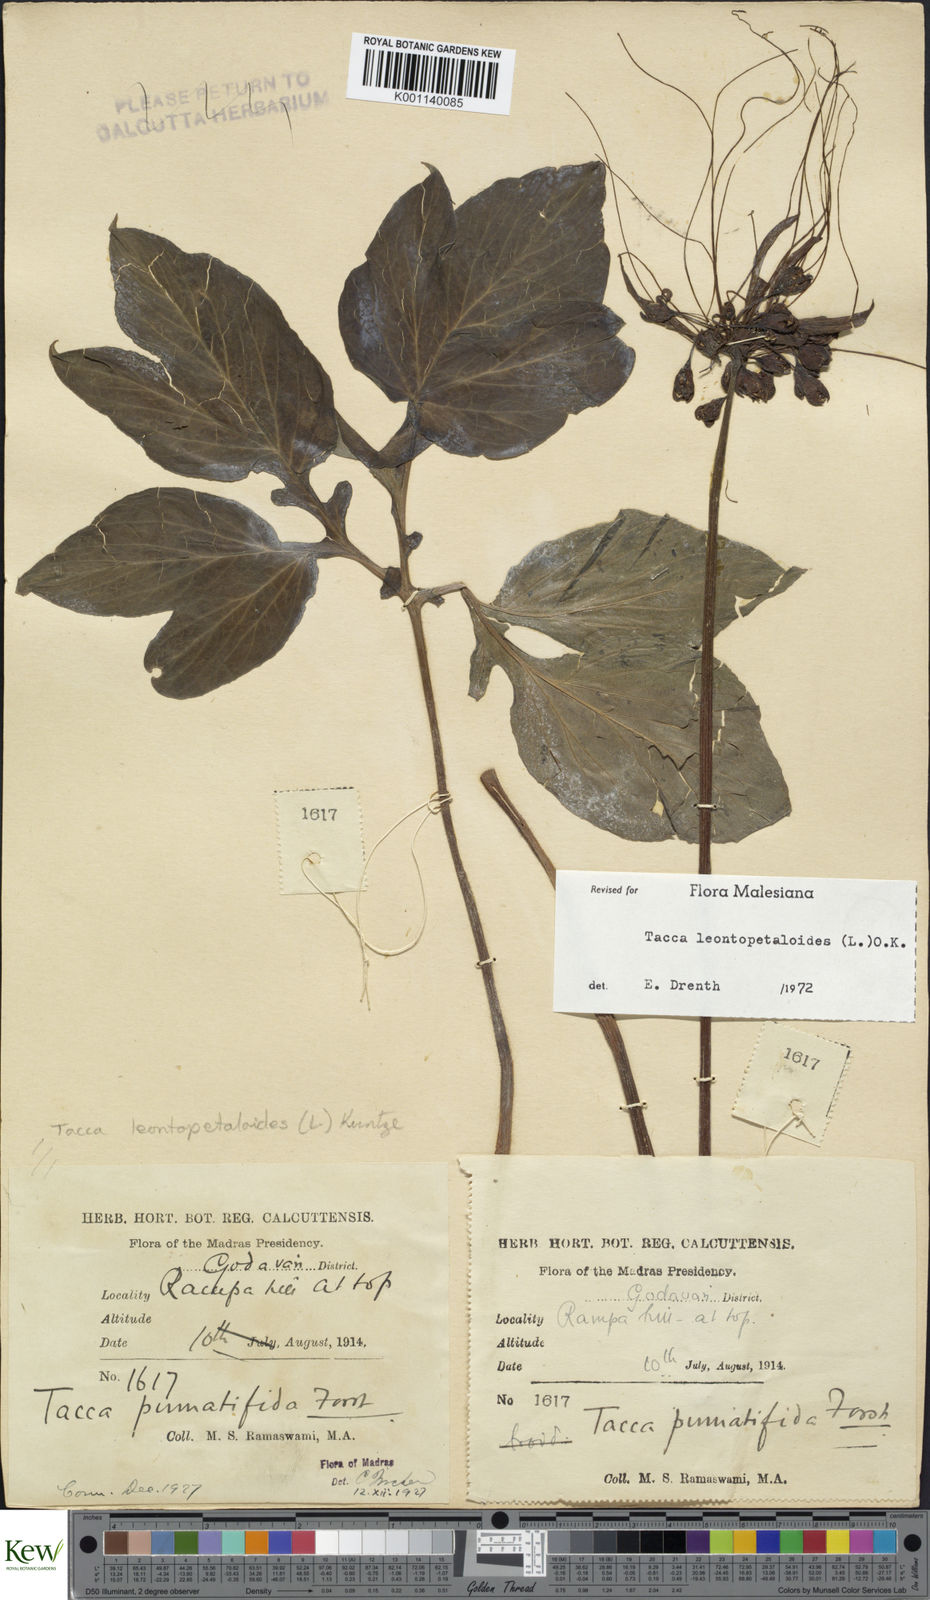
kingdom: Plantae
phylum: Tracheophyta
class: Liliopsida
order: Dioscoreales
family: Dioscoreaceae
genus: Tacca
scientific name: Tacca leontopetaloides
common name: Arrowroot
